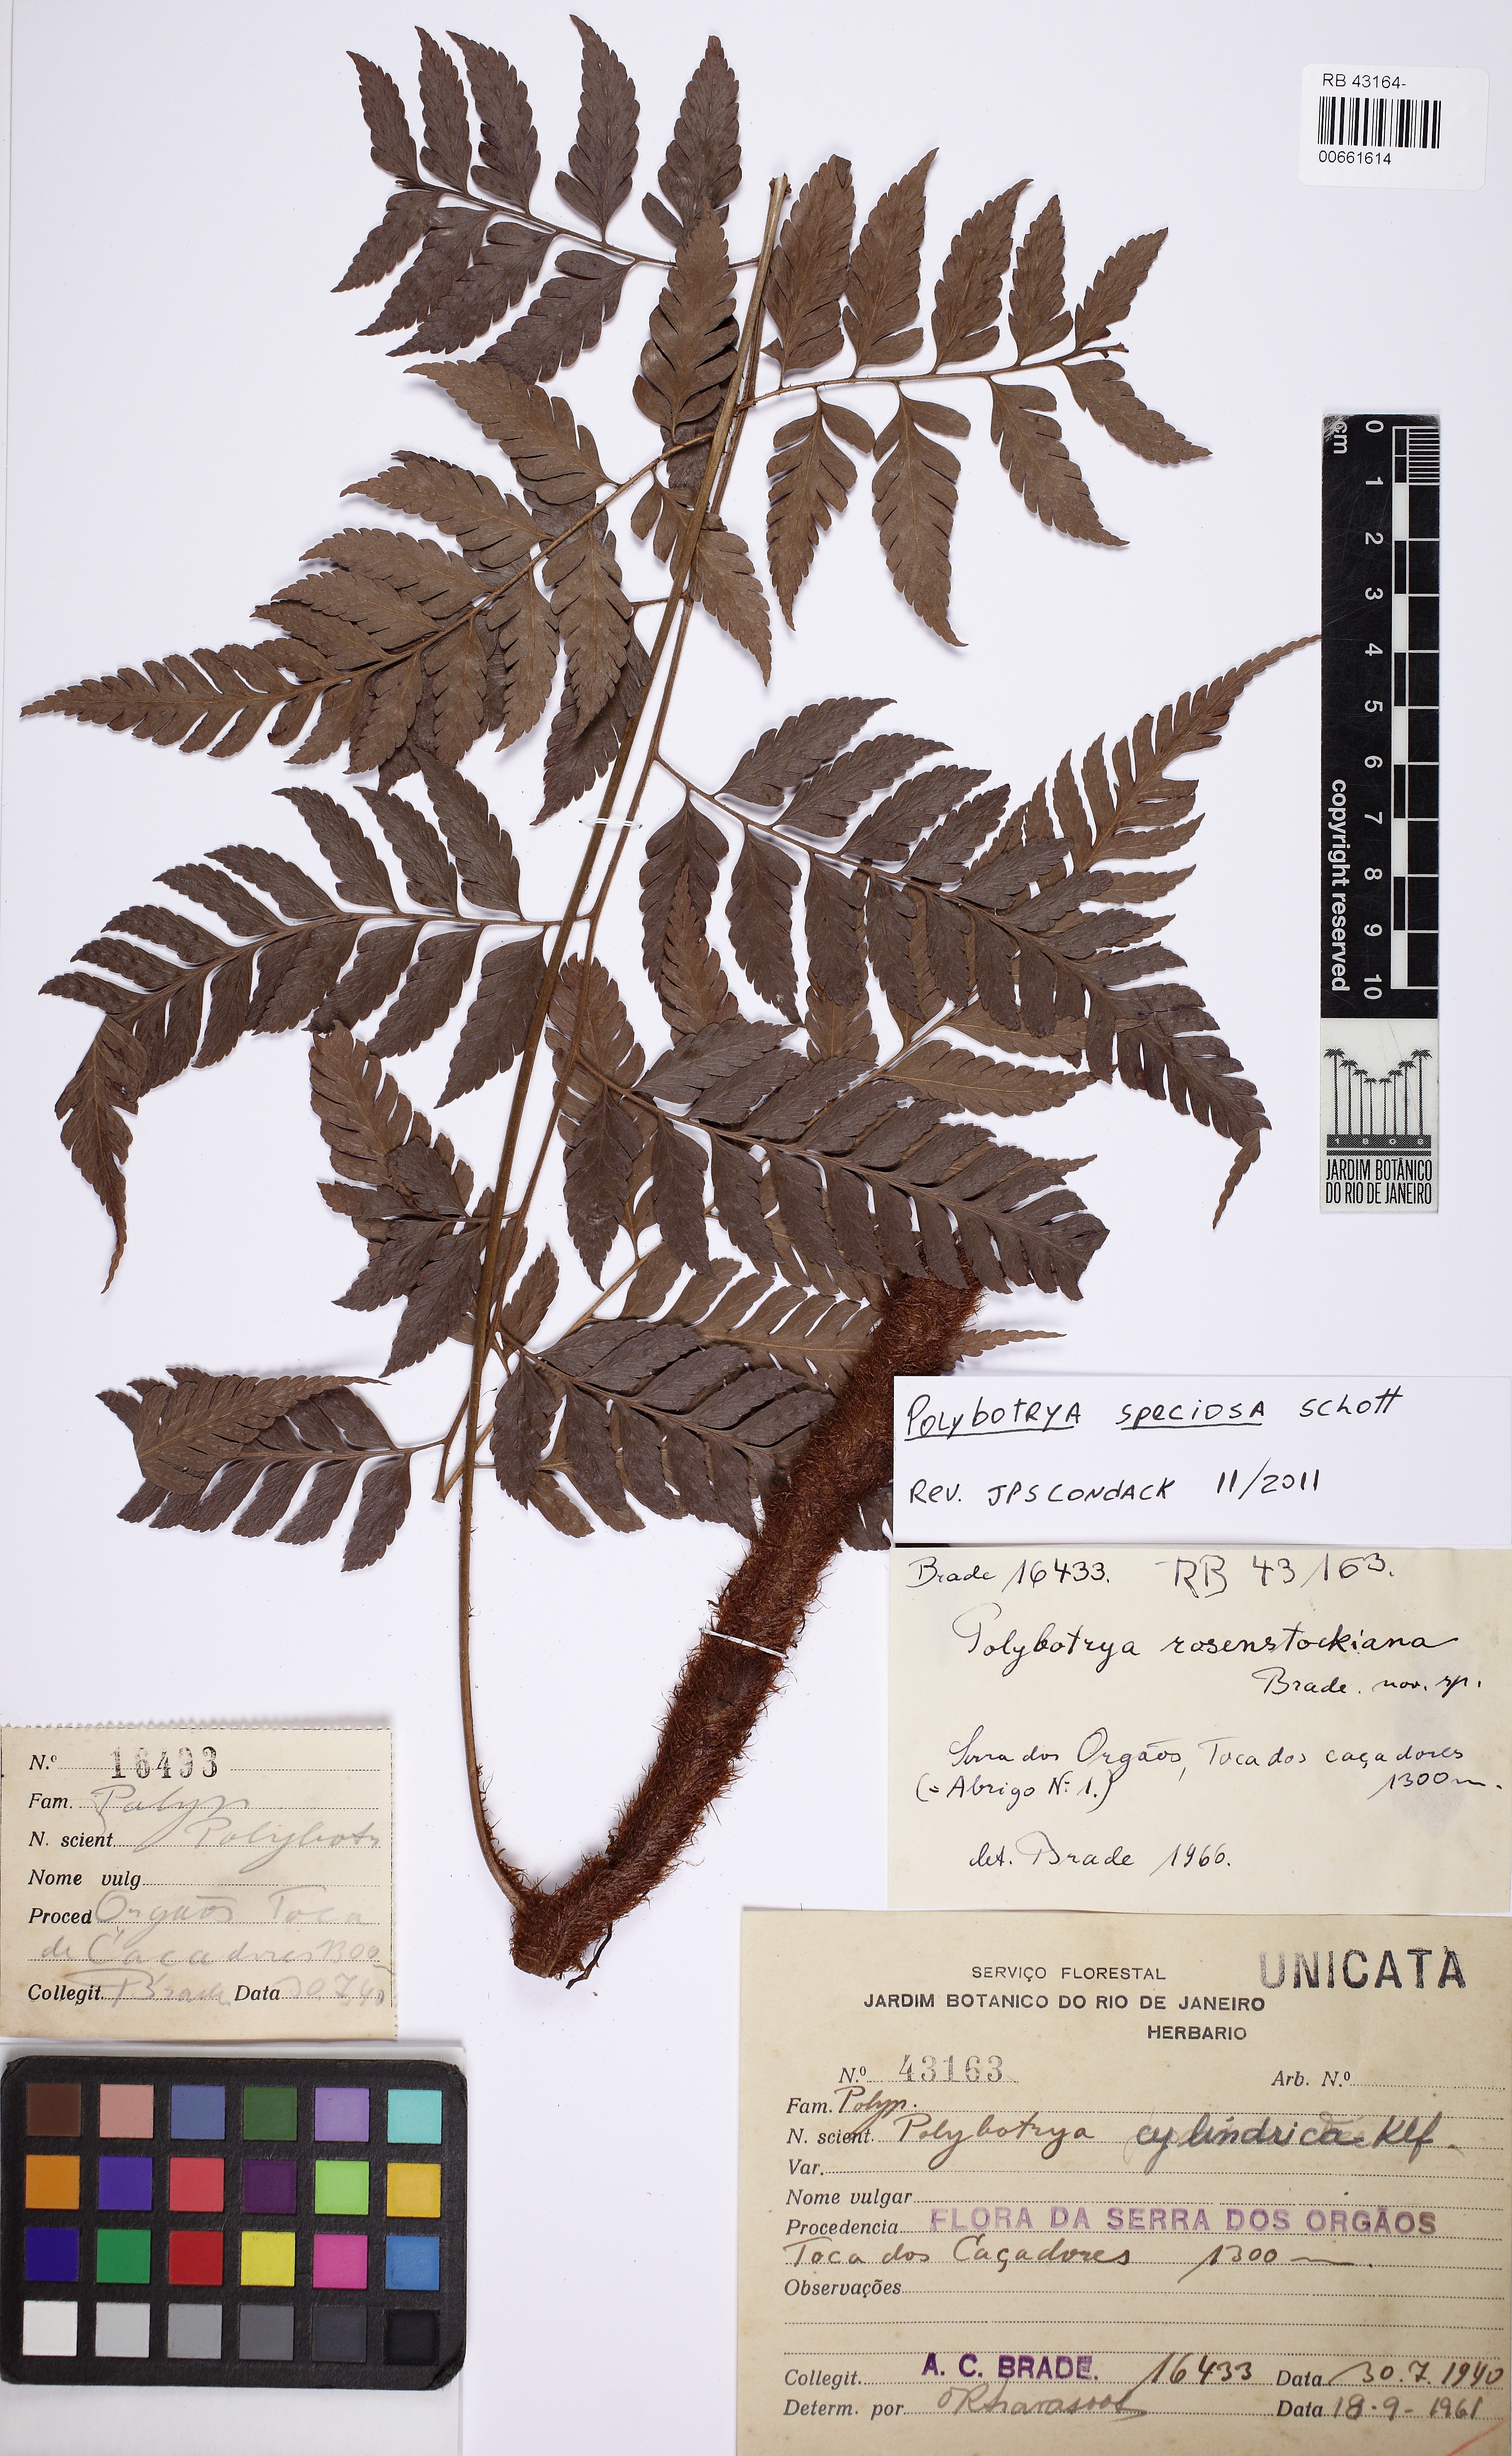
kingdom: Plantae
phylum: Tracheophyta
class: Polypodiopsida
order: Polypodiales
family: Dryopteridaceae
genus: Polybotrya
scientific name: Polybotrya speciosa
